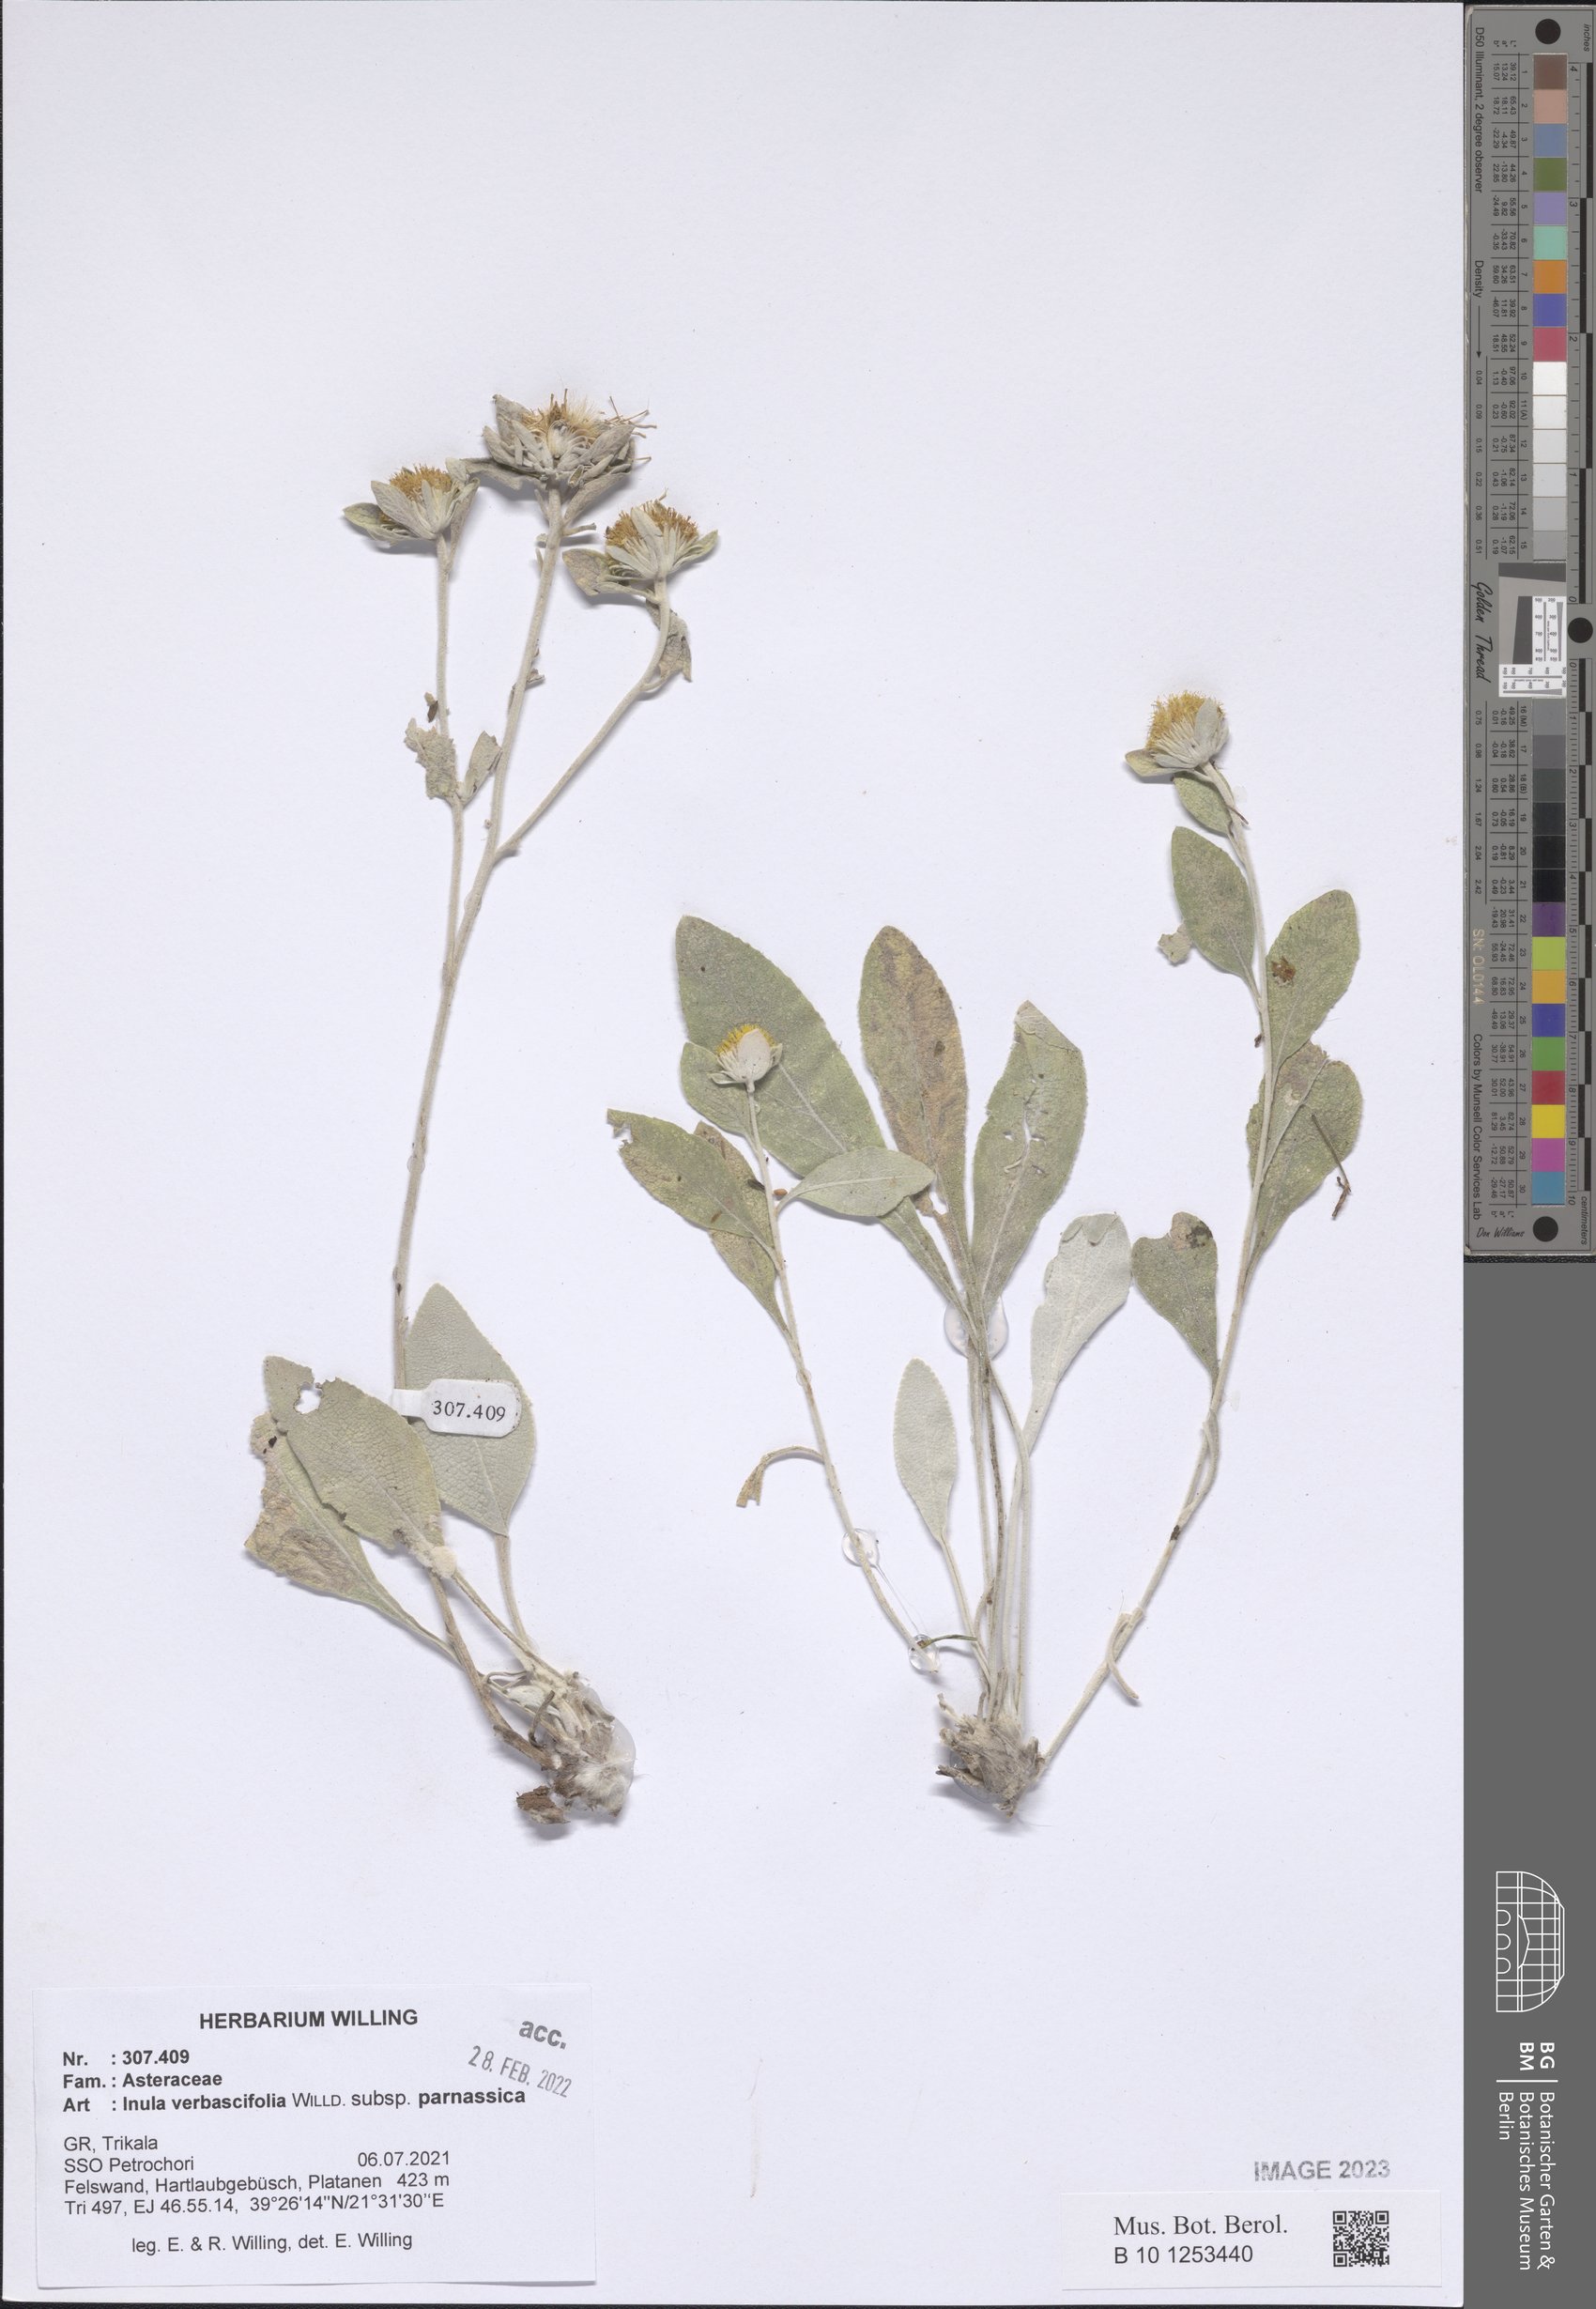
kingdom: Plantae
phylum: Tracheophyta
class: Magnoliopsida
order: Asterales
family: Asteraceae
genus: Pentanema
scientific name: Pentanema verbascifolium
